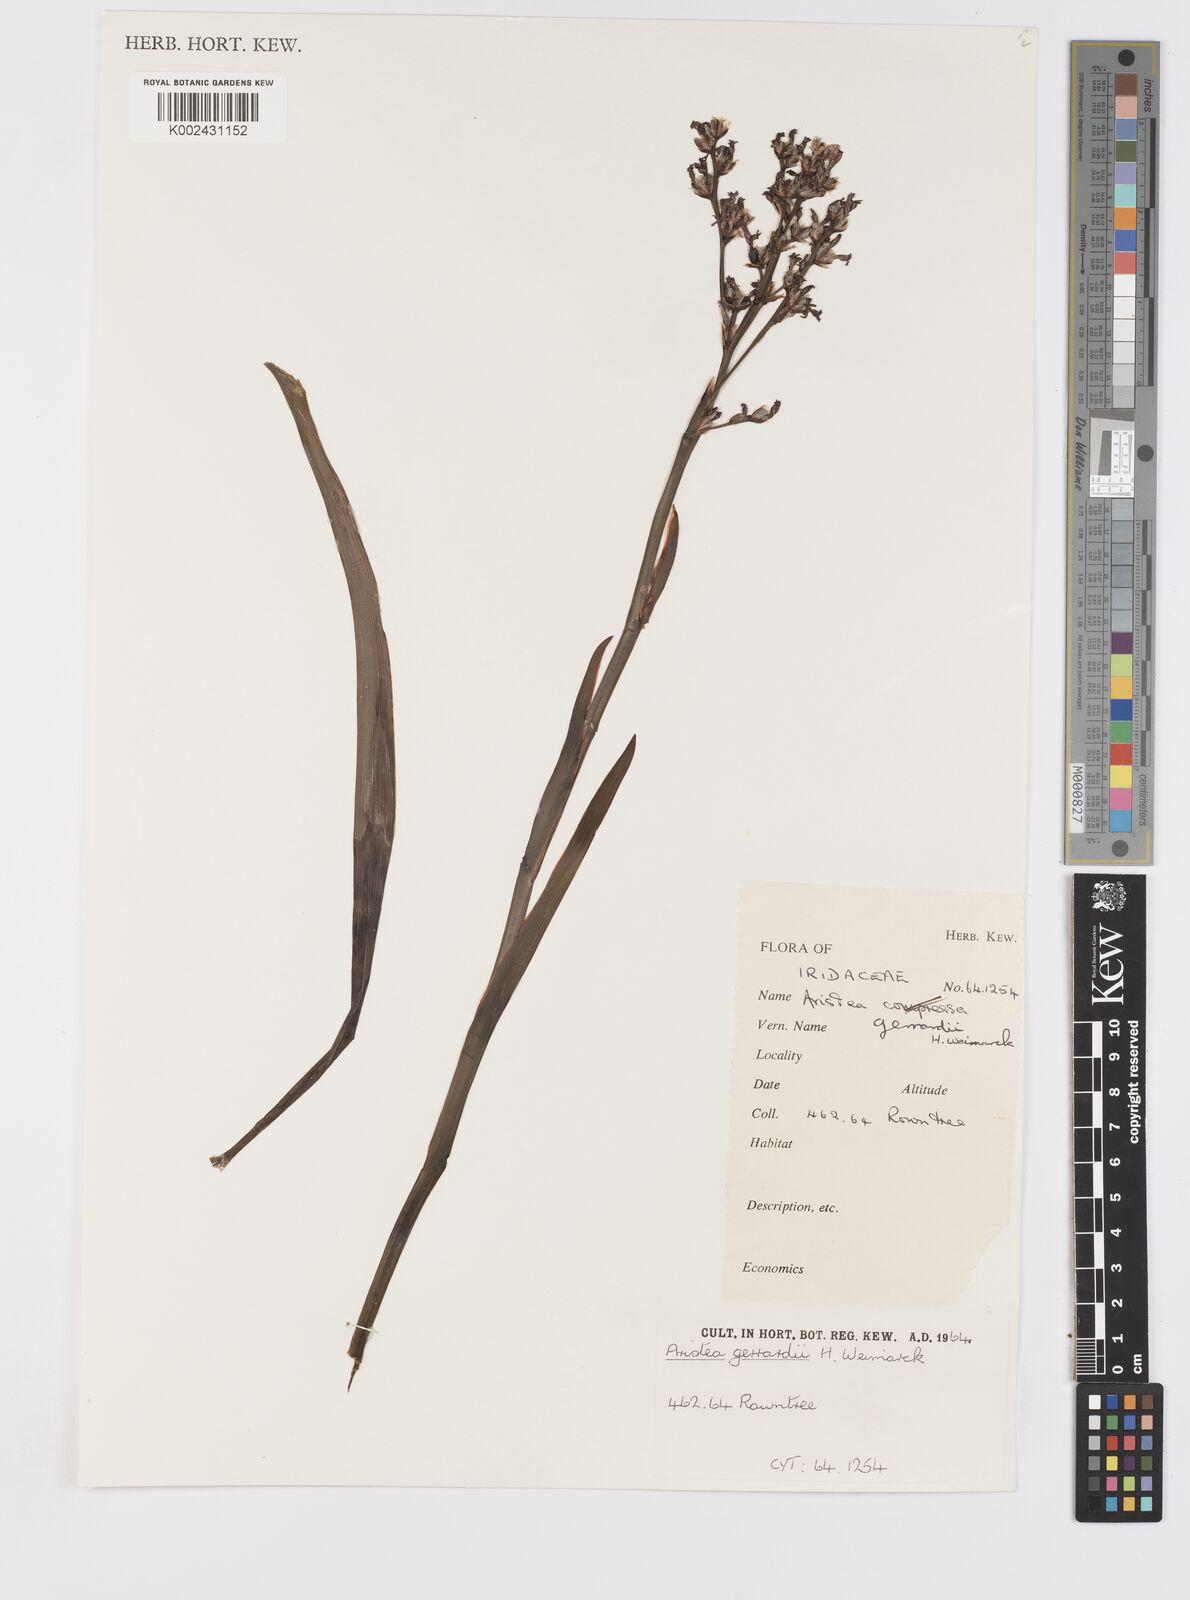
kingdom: Plantae
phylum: Tracheophyta
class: Liliopsida
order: Asparagales
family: Iridaceae
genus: Aristea
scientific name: Aristea compressa
